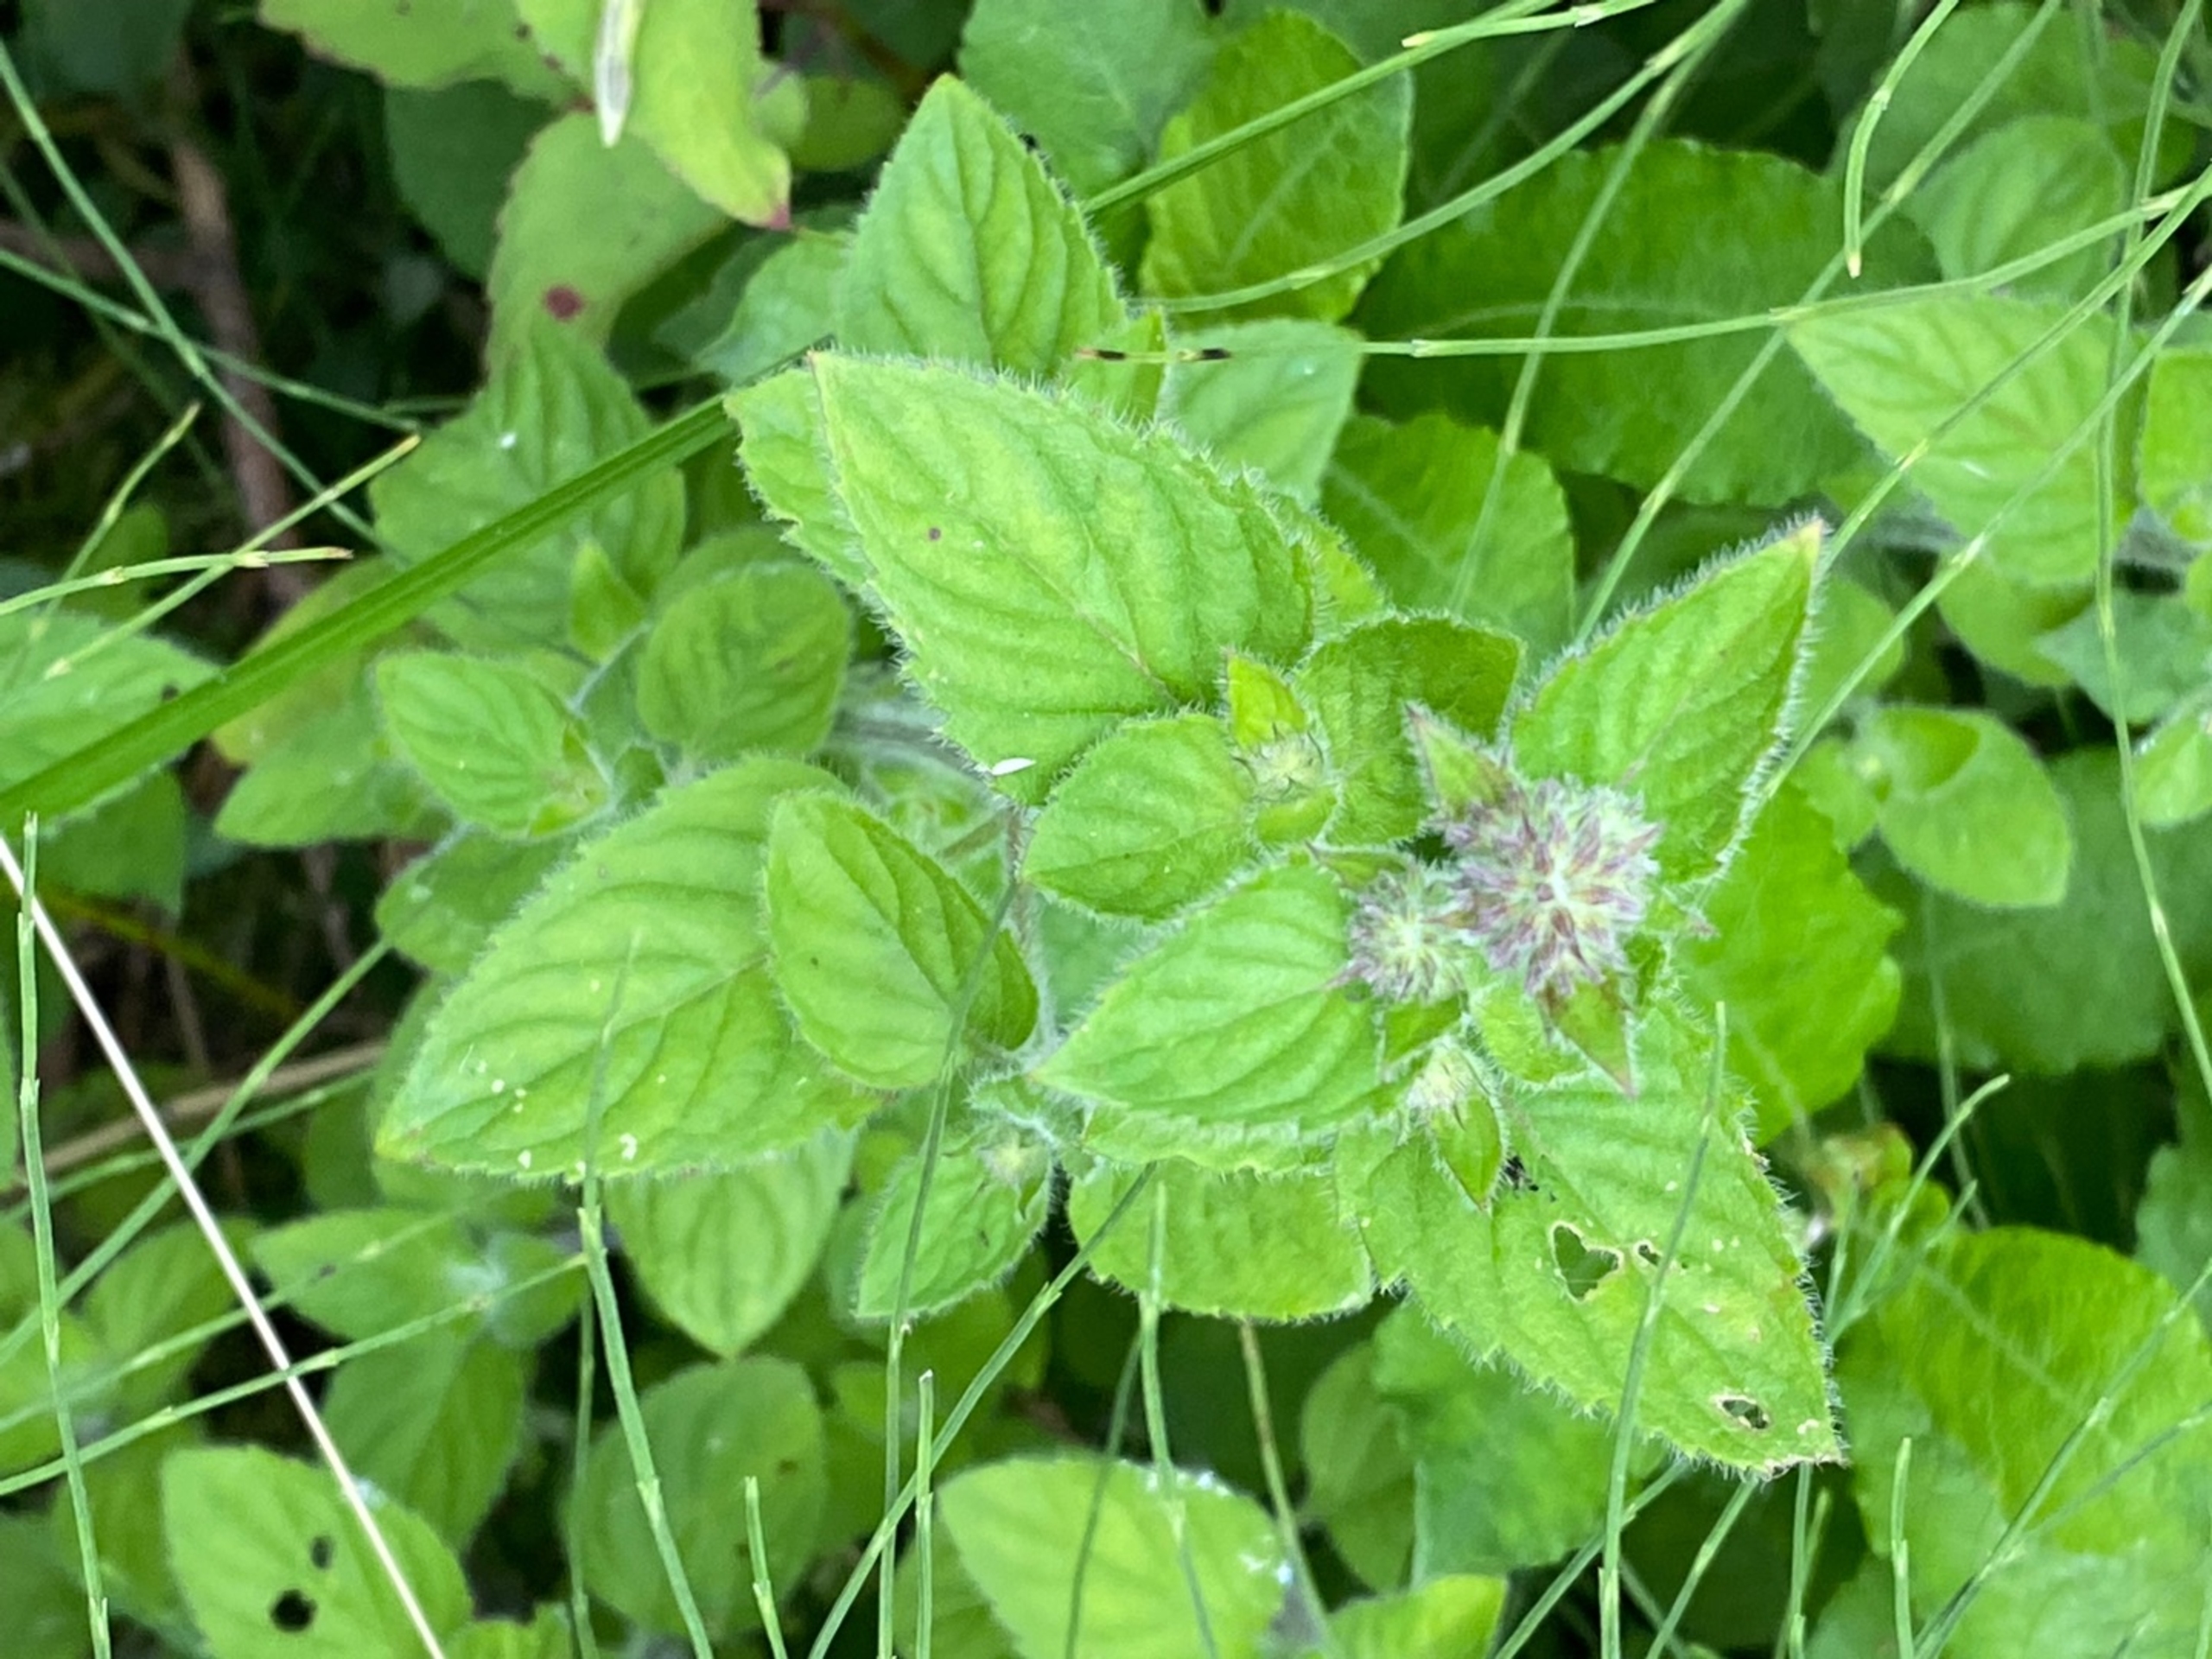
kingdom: Plantae
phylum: Tracheophyta
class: Magnoliopsida
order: Lamiales
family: Lamiaceae
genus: Mentha
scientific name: Mentha aquatica
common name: Vand-mynte
